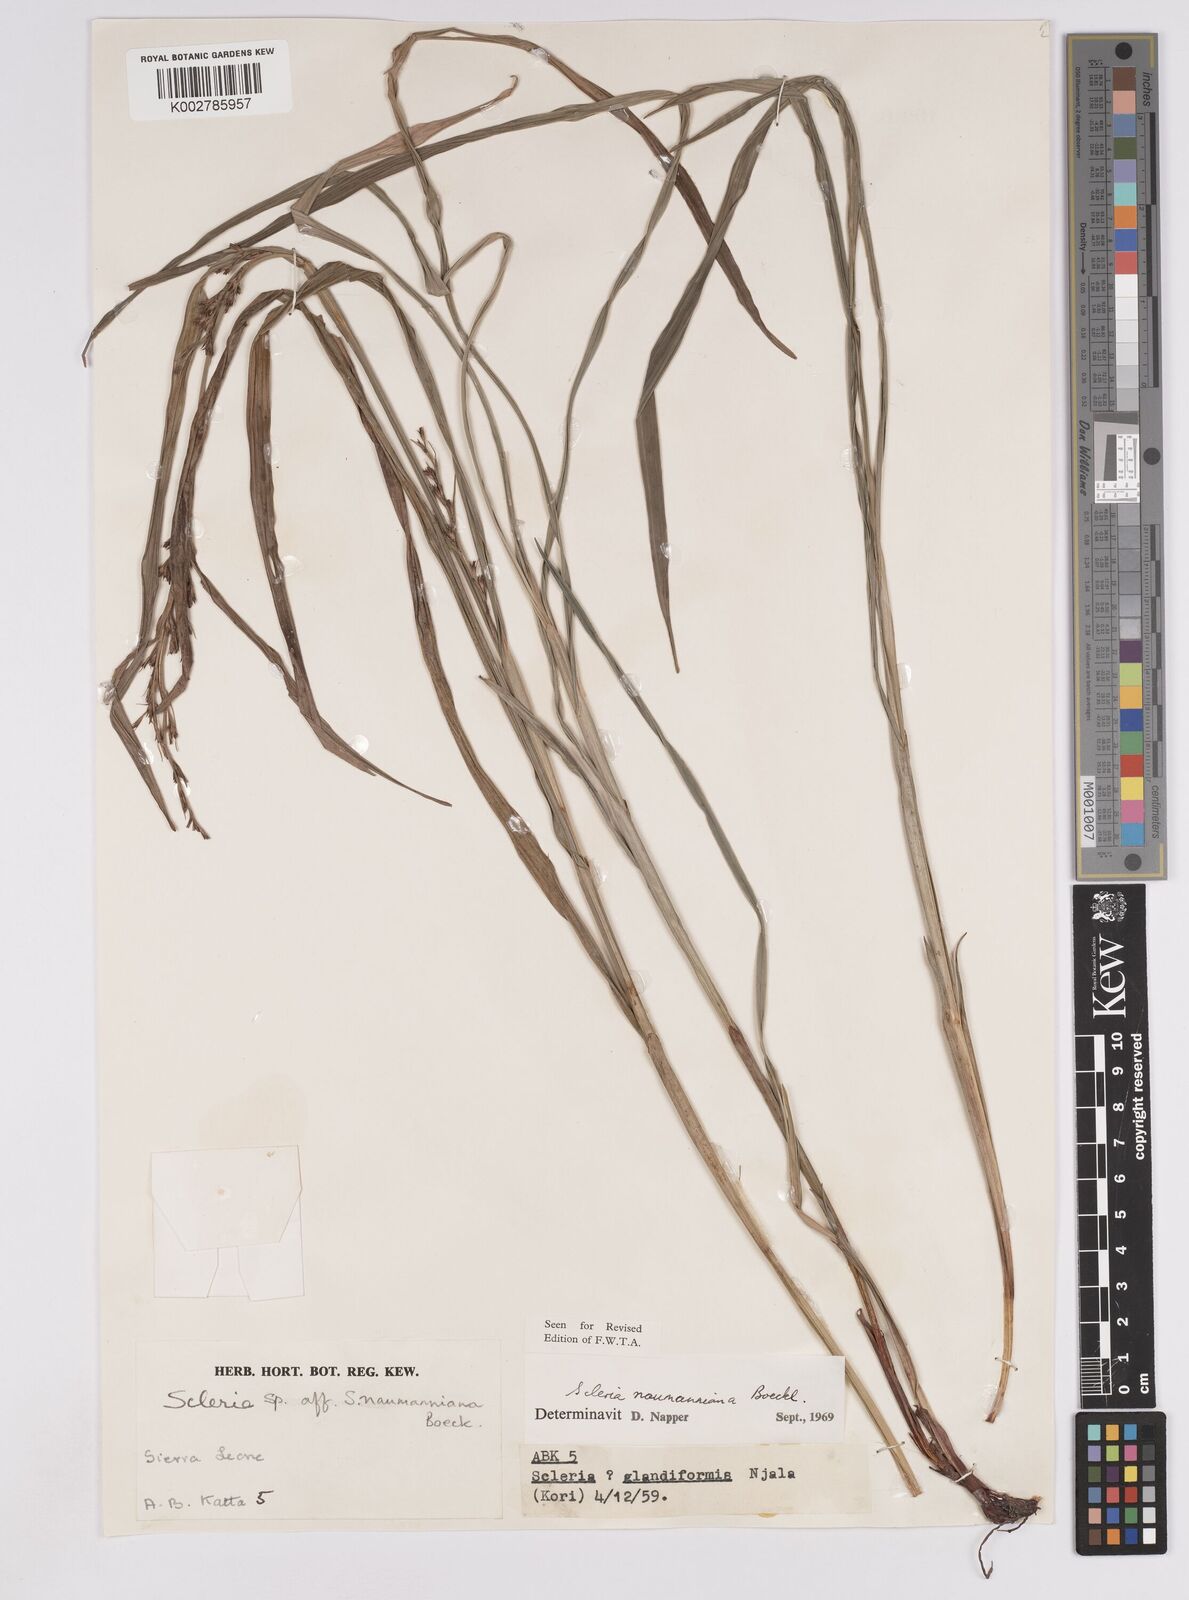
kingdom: Plantae
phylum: Tracheophyta
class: Liliopsida
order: Poales
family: Cyperaceae
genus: Scleria
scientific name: Scleria naumanniana
